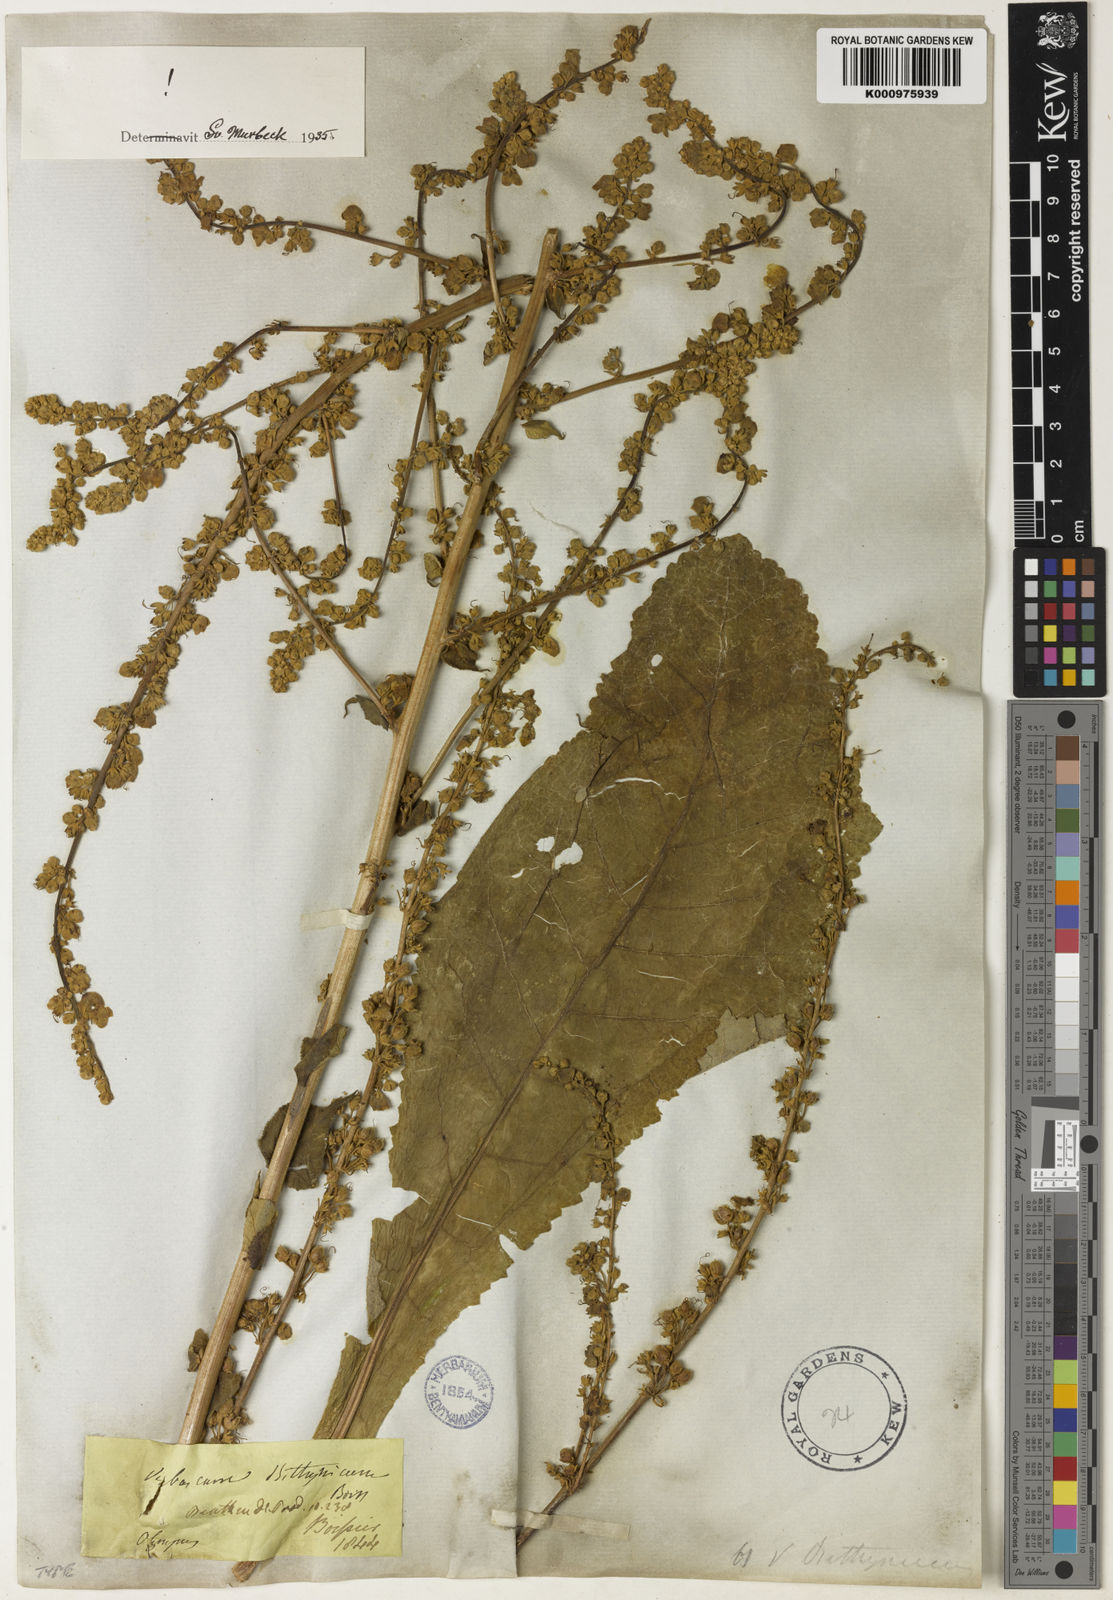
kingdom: Plantae
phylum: Tracheophyta
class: Magnoliopsida
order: Lamiales
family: Scrophulariaceae
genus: Verbascum
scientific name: Verbascum bithynicum
